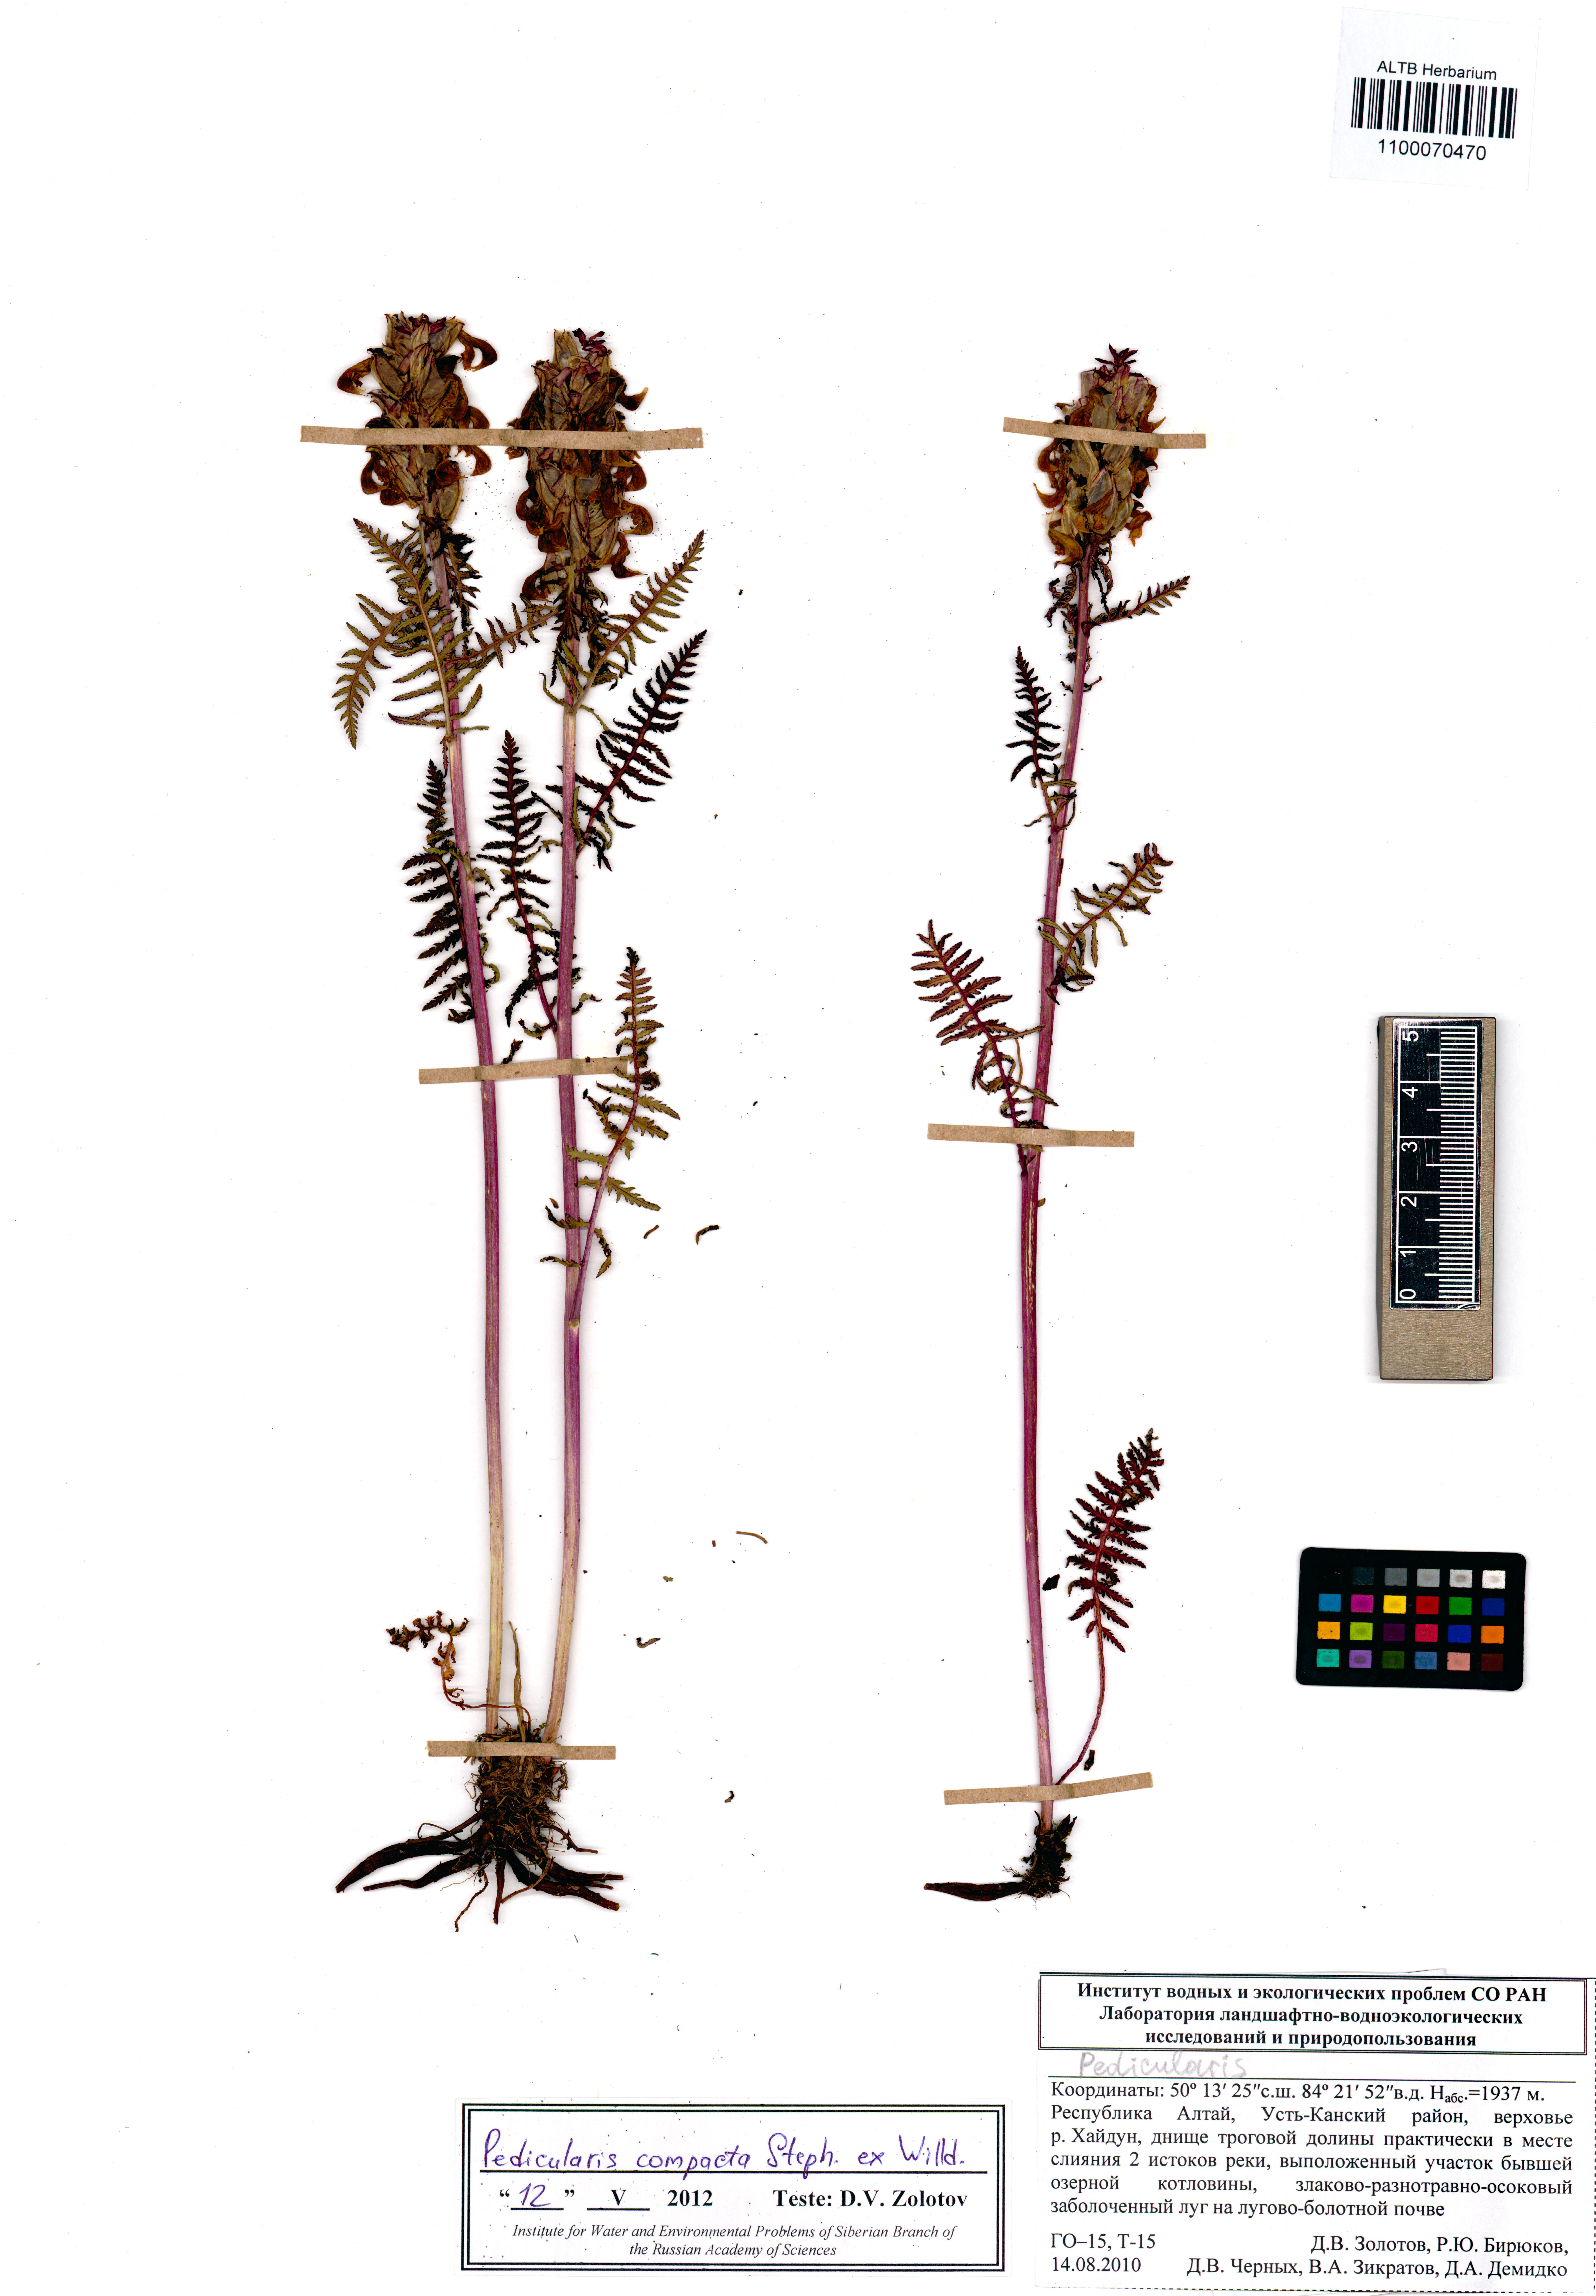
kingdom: Plantae
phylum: Tracheophyta
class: Magnoliopsida
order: Lamiales
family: Orobanchaceae
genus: Pedicularis
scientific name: Pedicularis compacta
